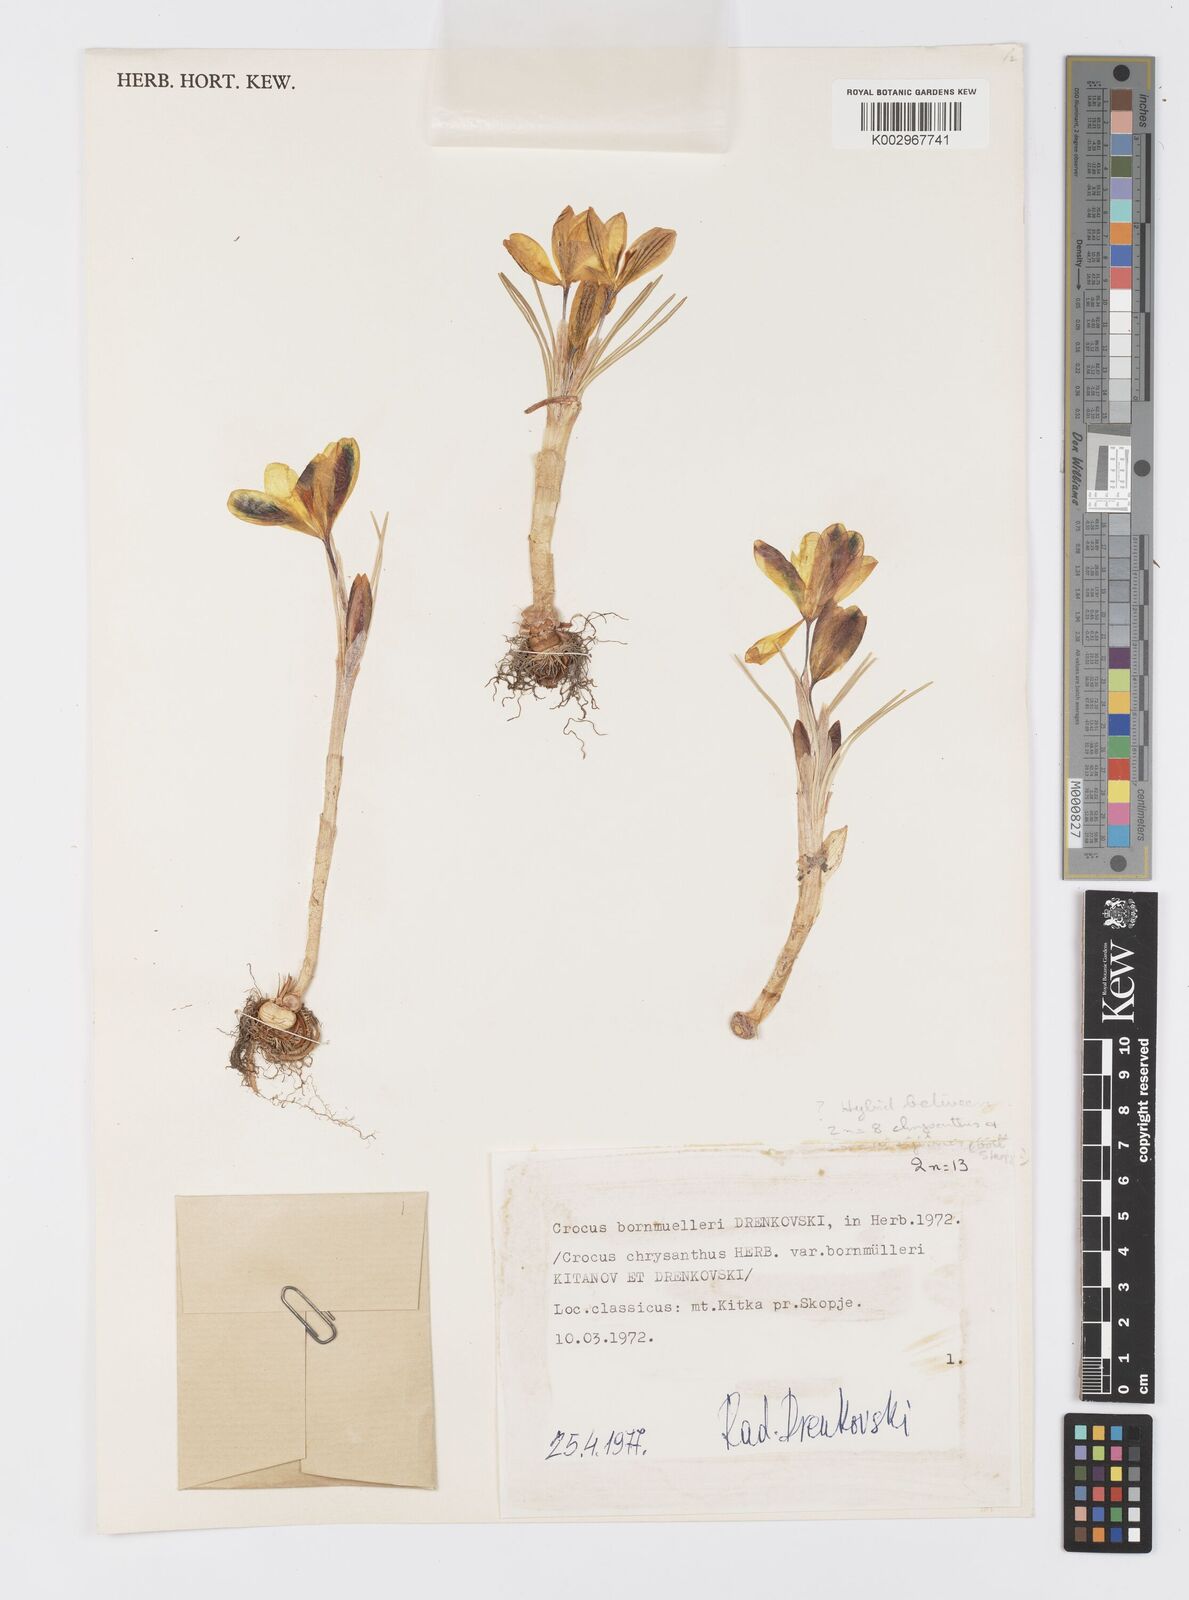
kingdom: Plantae
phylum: Tracheophyta
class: Liliopsida
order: Asparagales
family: Iridaceae
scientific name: Iridaceae
